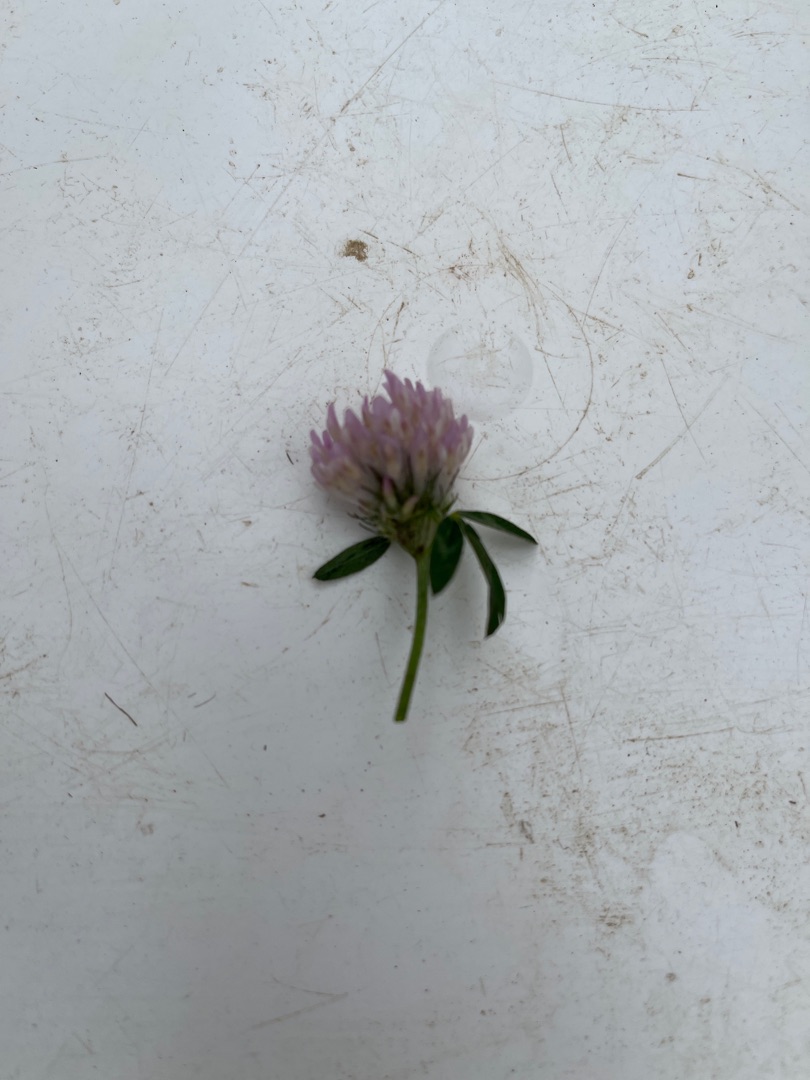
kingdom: Plantae
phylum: Tracheophyta
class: Magnoliopsida
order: Fabales
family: Fabaceae
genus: Trifolium
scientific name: Trifolium pratense
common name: Rød-kløver
